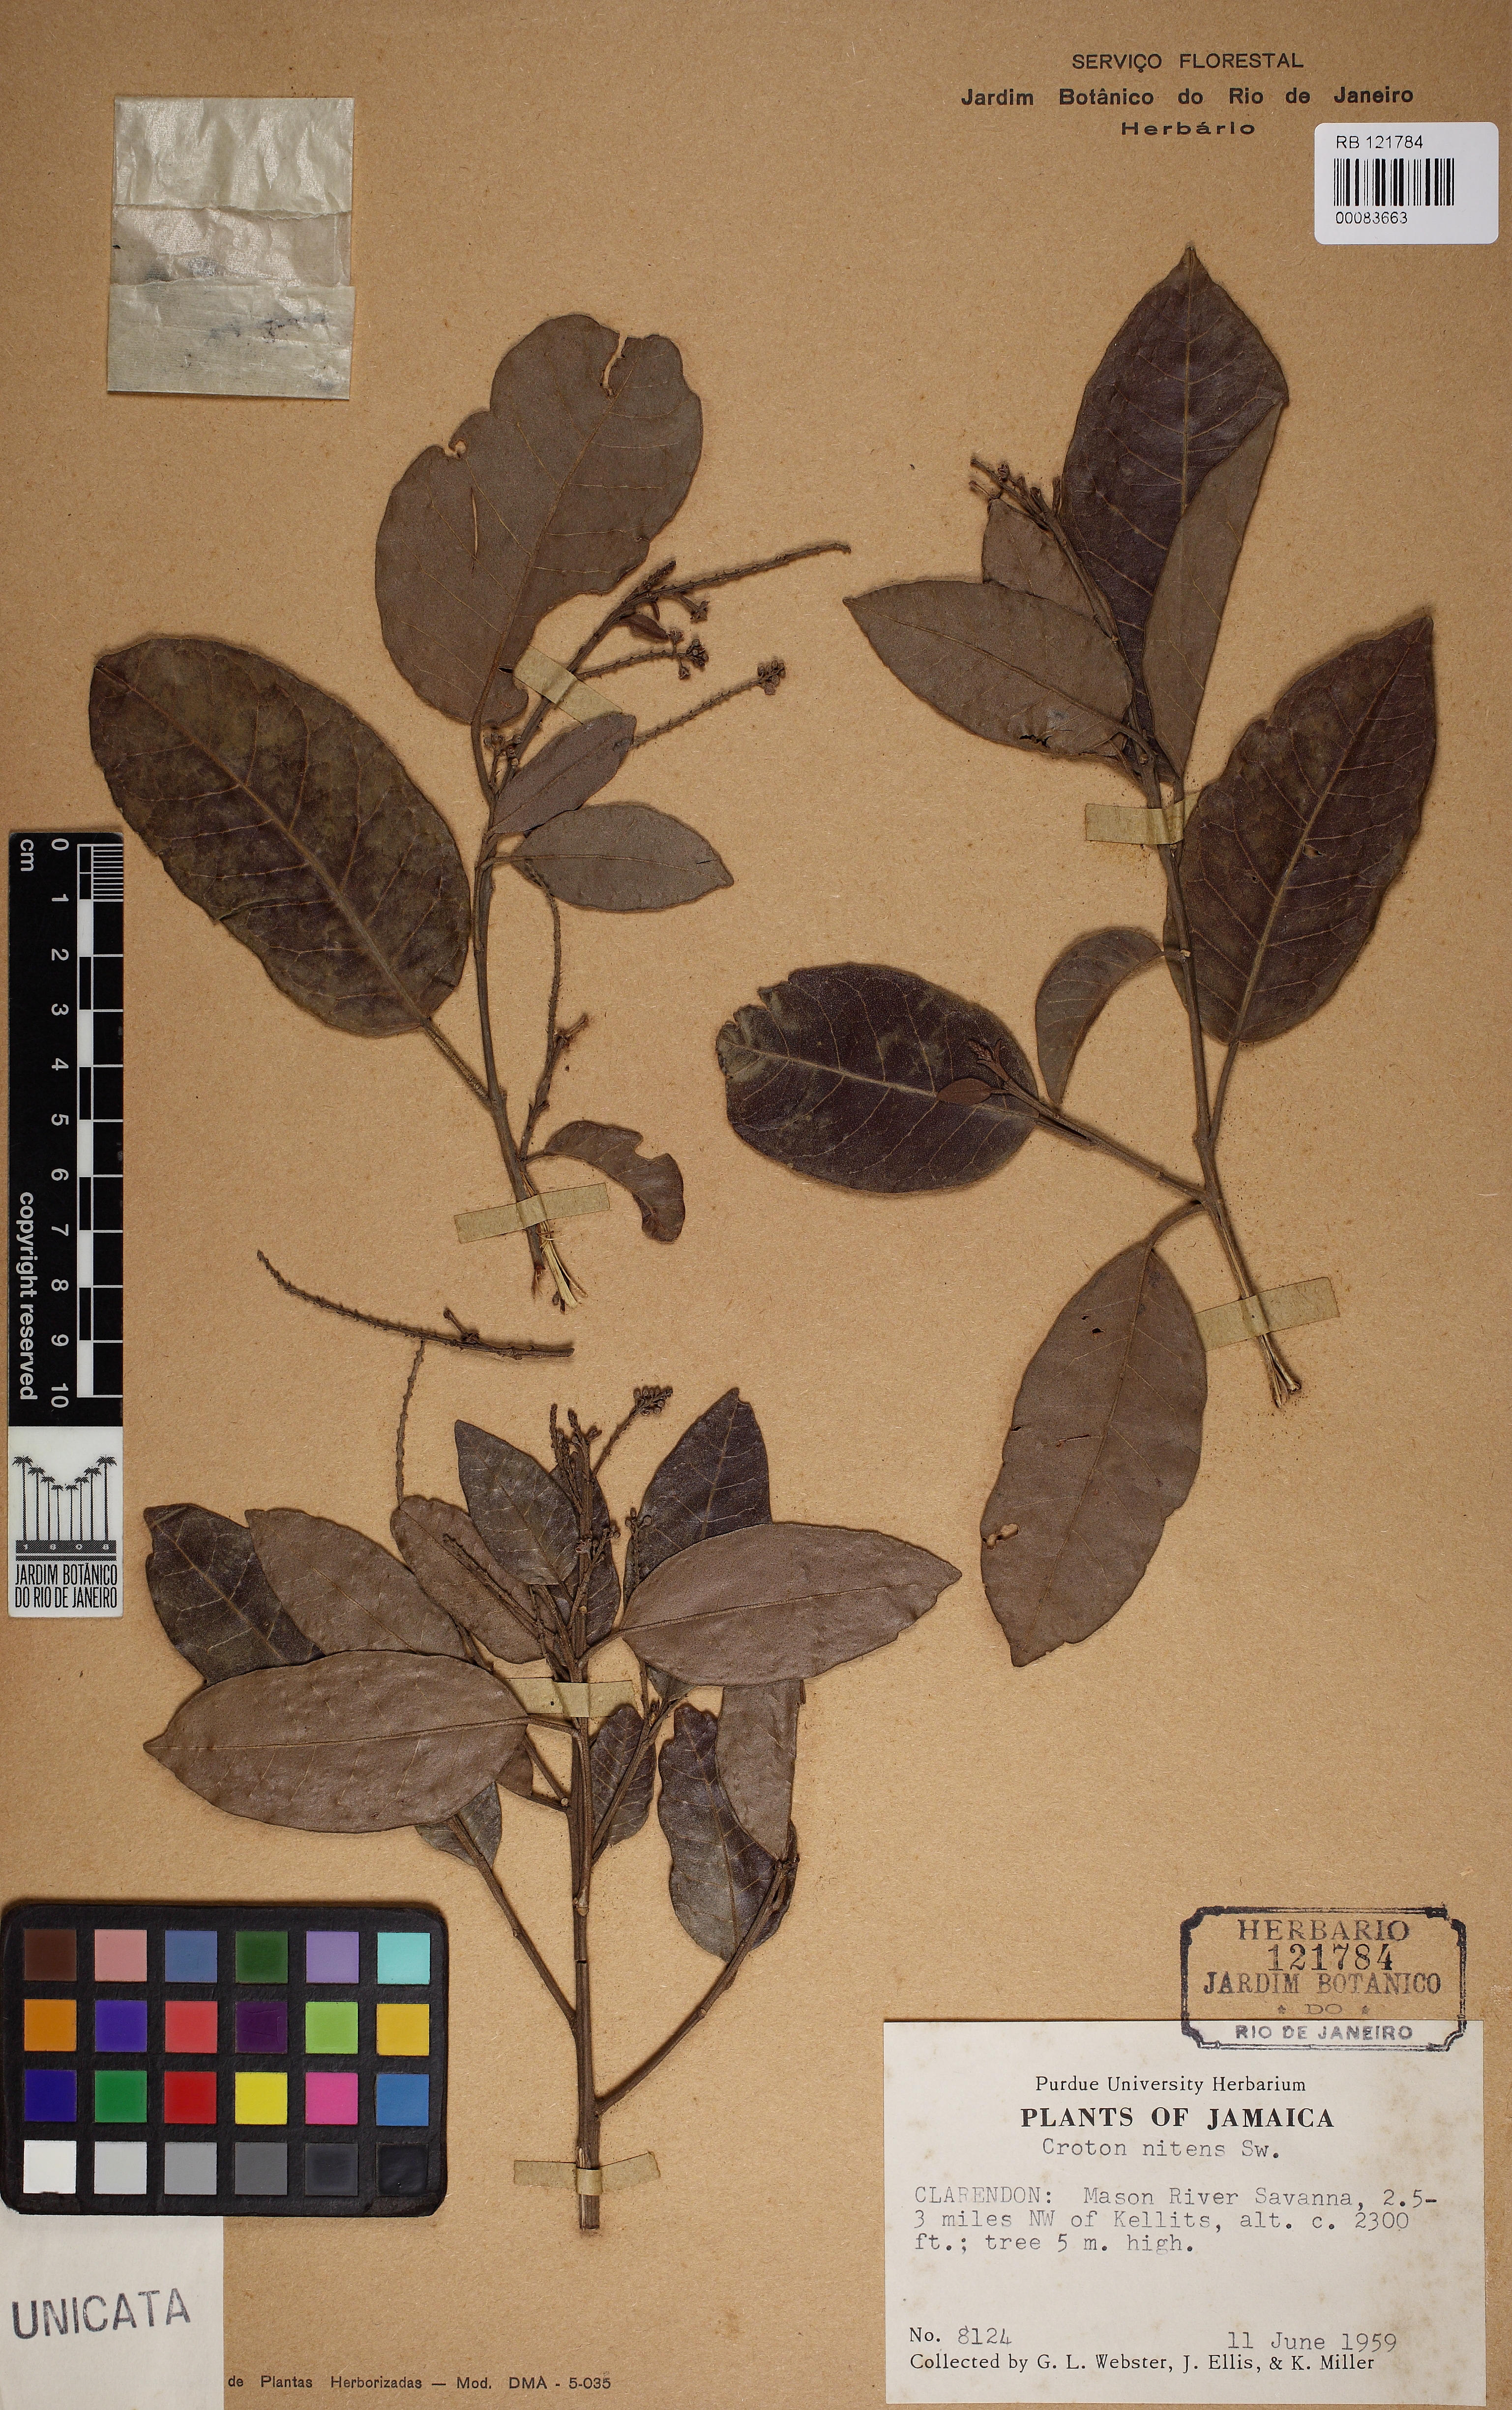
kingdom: Plantae
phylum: Tracheophyta
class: Magnoliopsida
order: Malpighiales
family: Euphorbiaceae
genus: Croton
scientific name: Croton nitens
